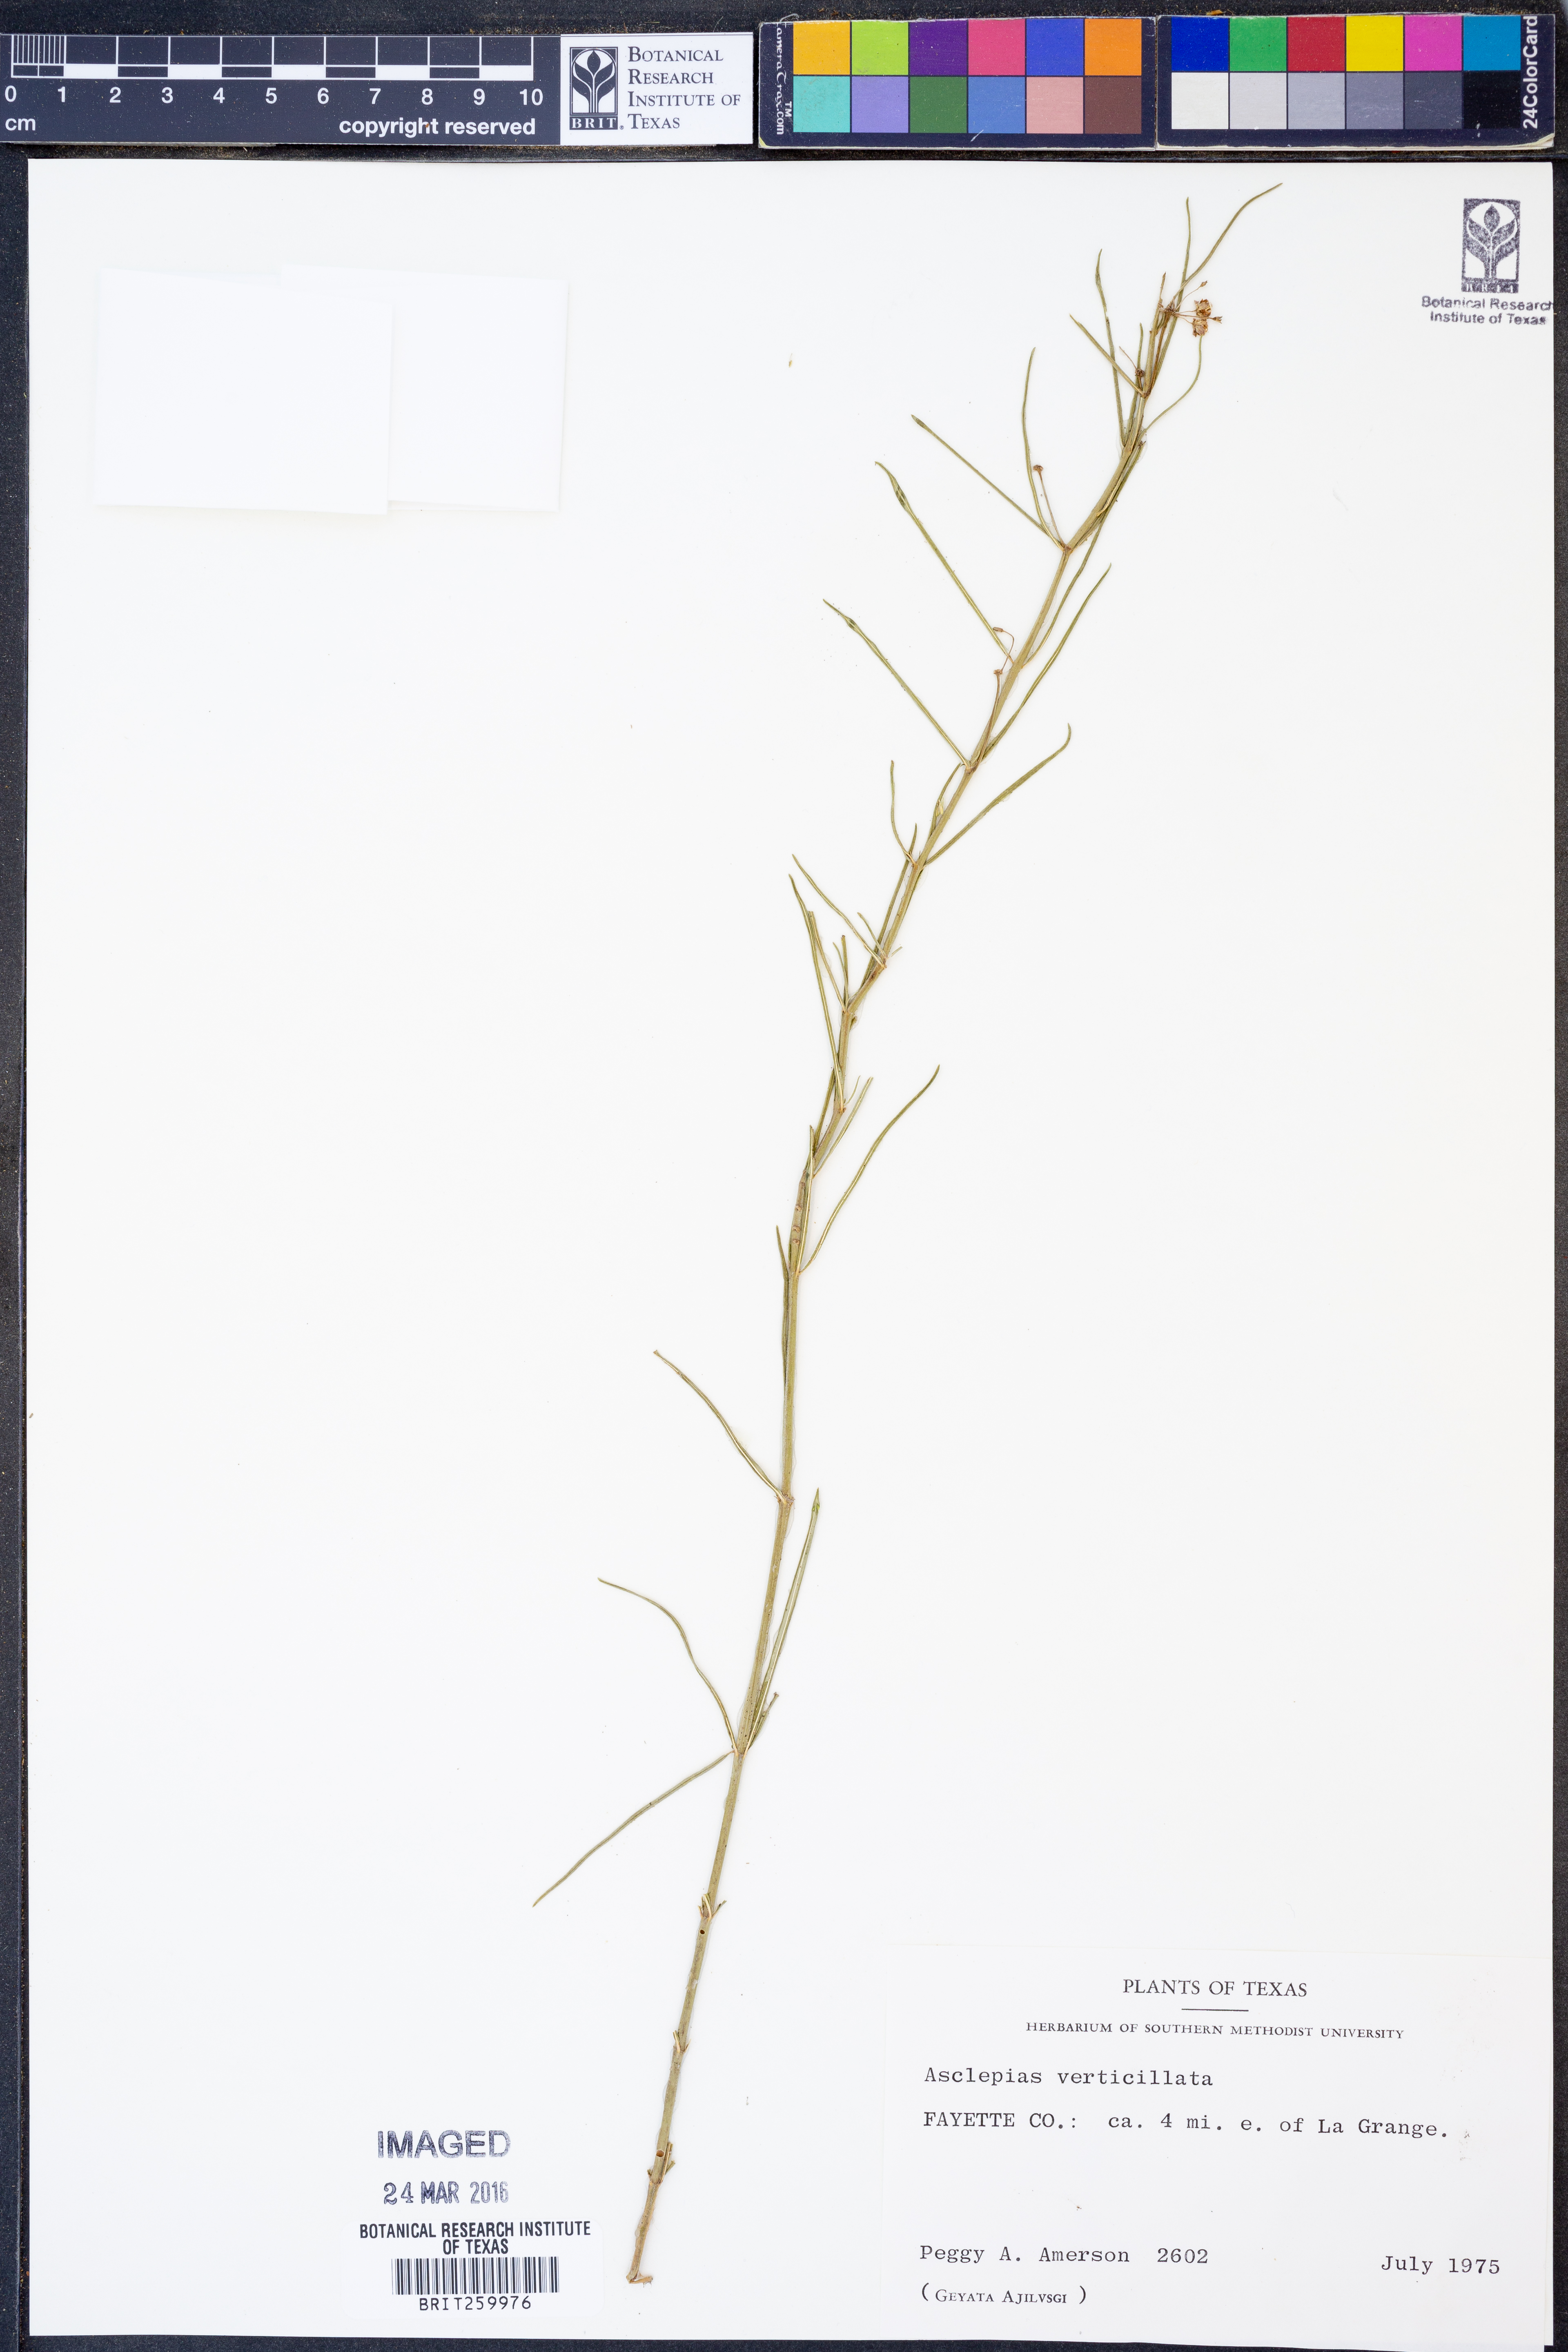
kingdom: Plantae
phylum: Tracheophyta
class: Magnoliopsida
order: Gentianales
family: Apocynaceae
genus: Asclepias
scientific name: Asclepias verticillata
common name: Eastern whorled milkweed
